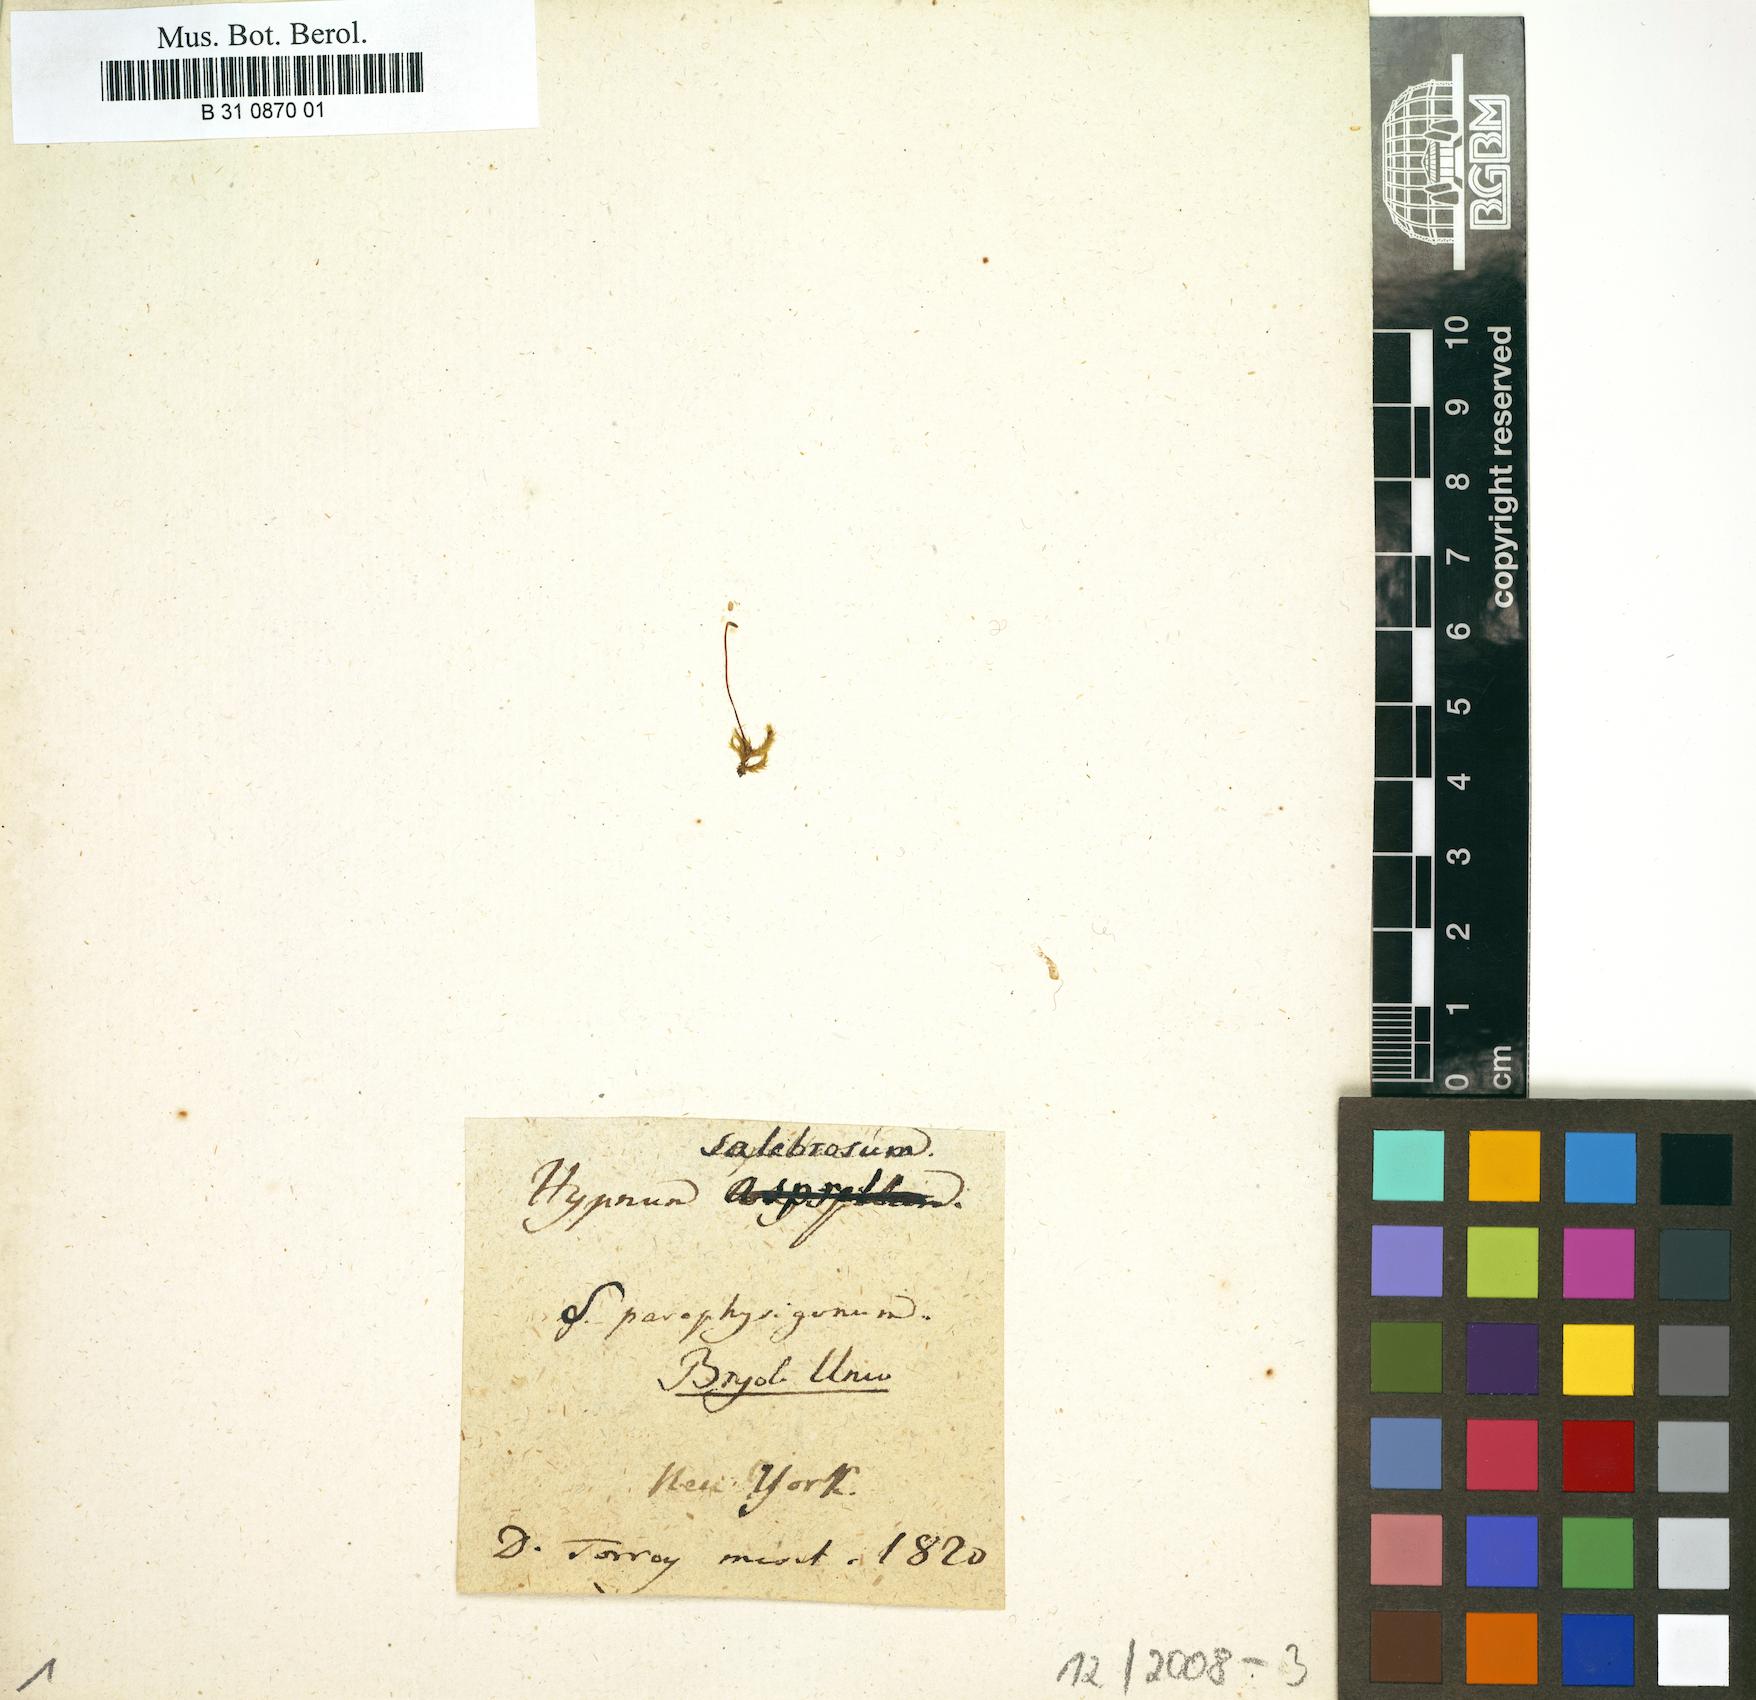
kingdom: Plantae
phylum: Bryophyta
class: Bryopsida
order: Hypnales
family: Brachytheciaceae
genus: Brachythecium
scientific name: Brachythecium salebrosum
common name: Smooth-stalk feather-moss
